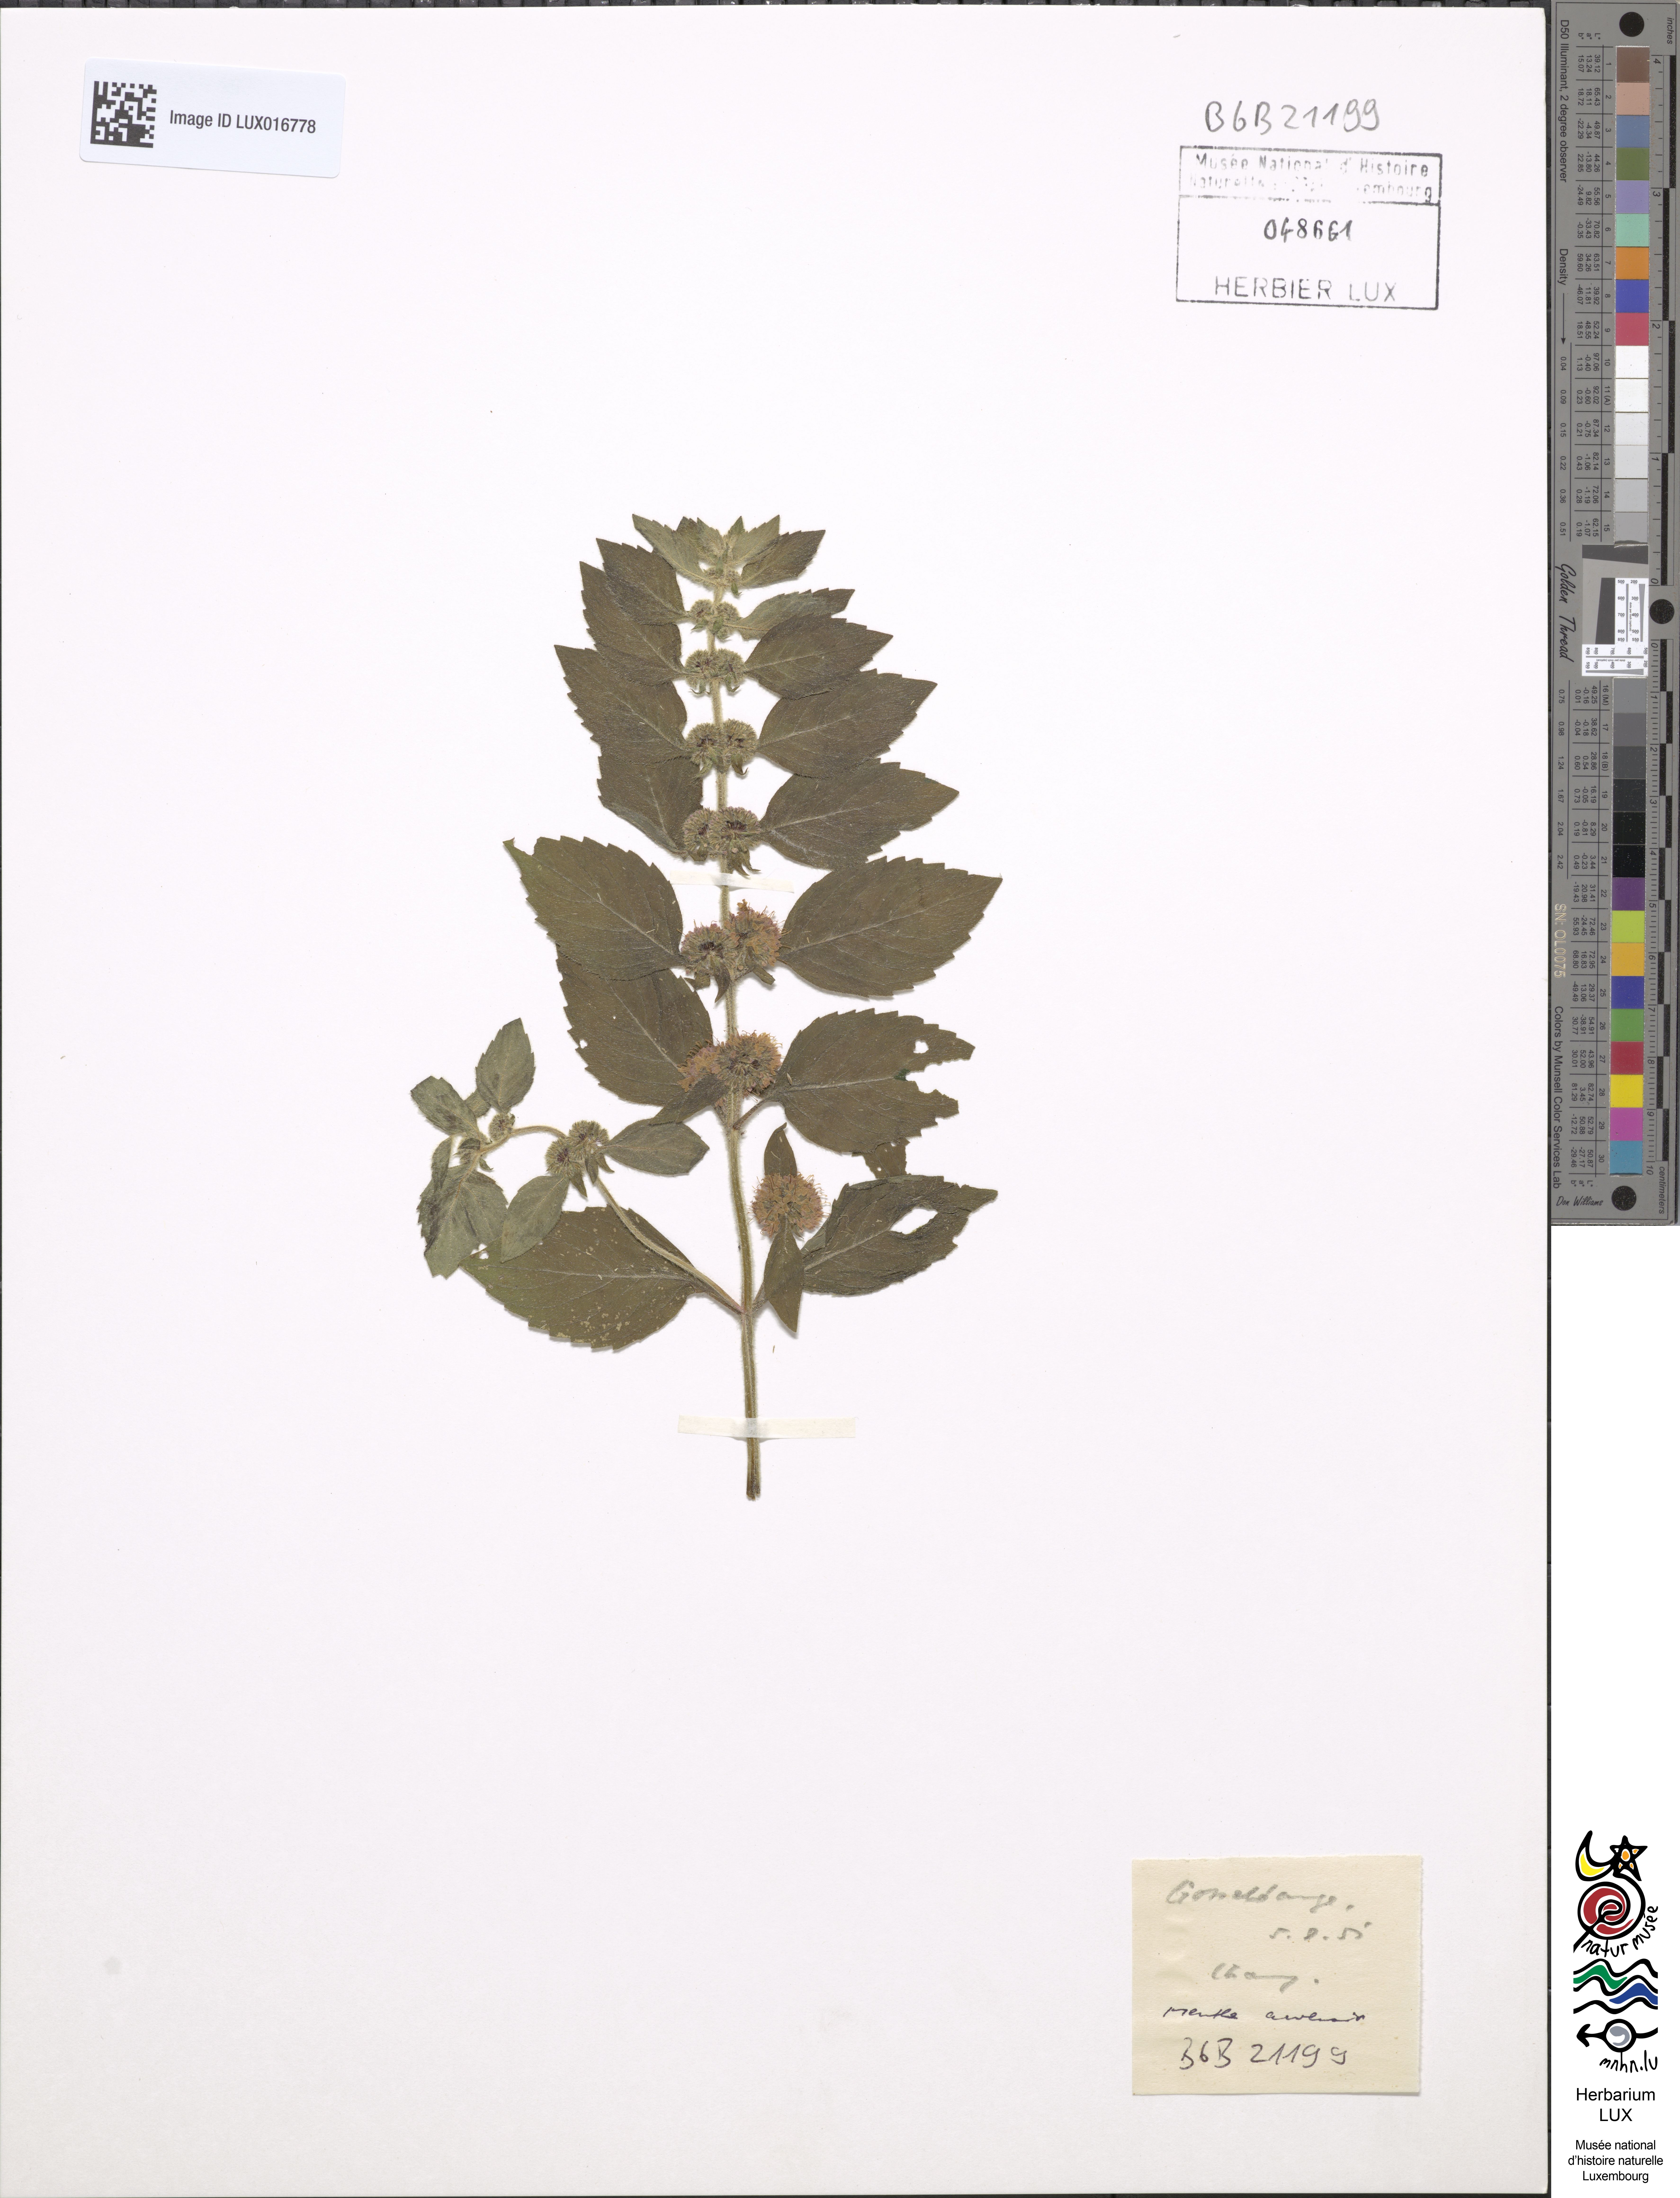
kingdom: Plantae
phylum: Tracheophyta
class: Magnoliopsida
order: Lamiales
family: Lamiaceae
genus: Mentha
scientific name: Mentha aquatica
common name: Water mint
